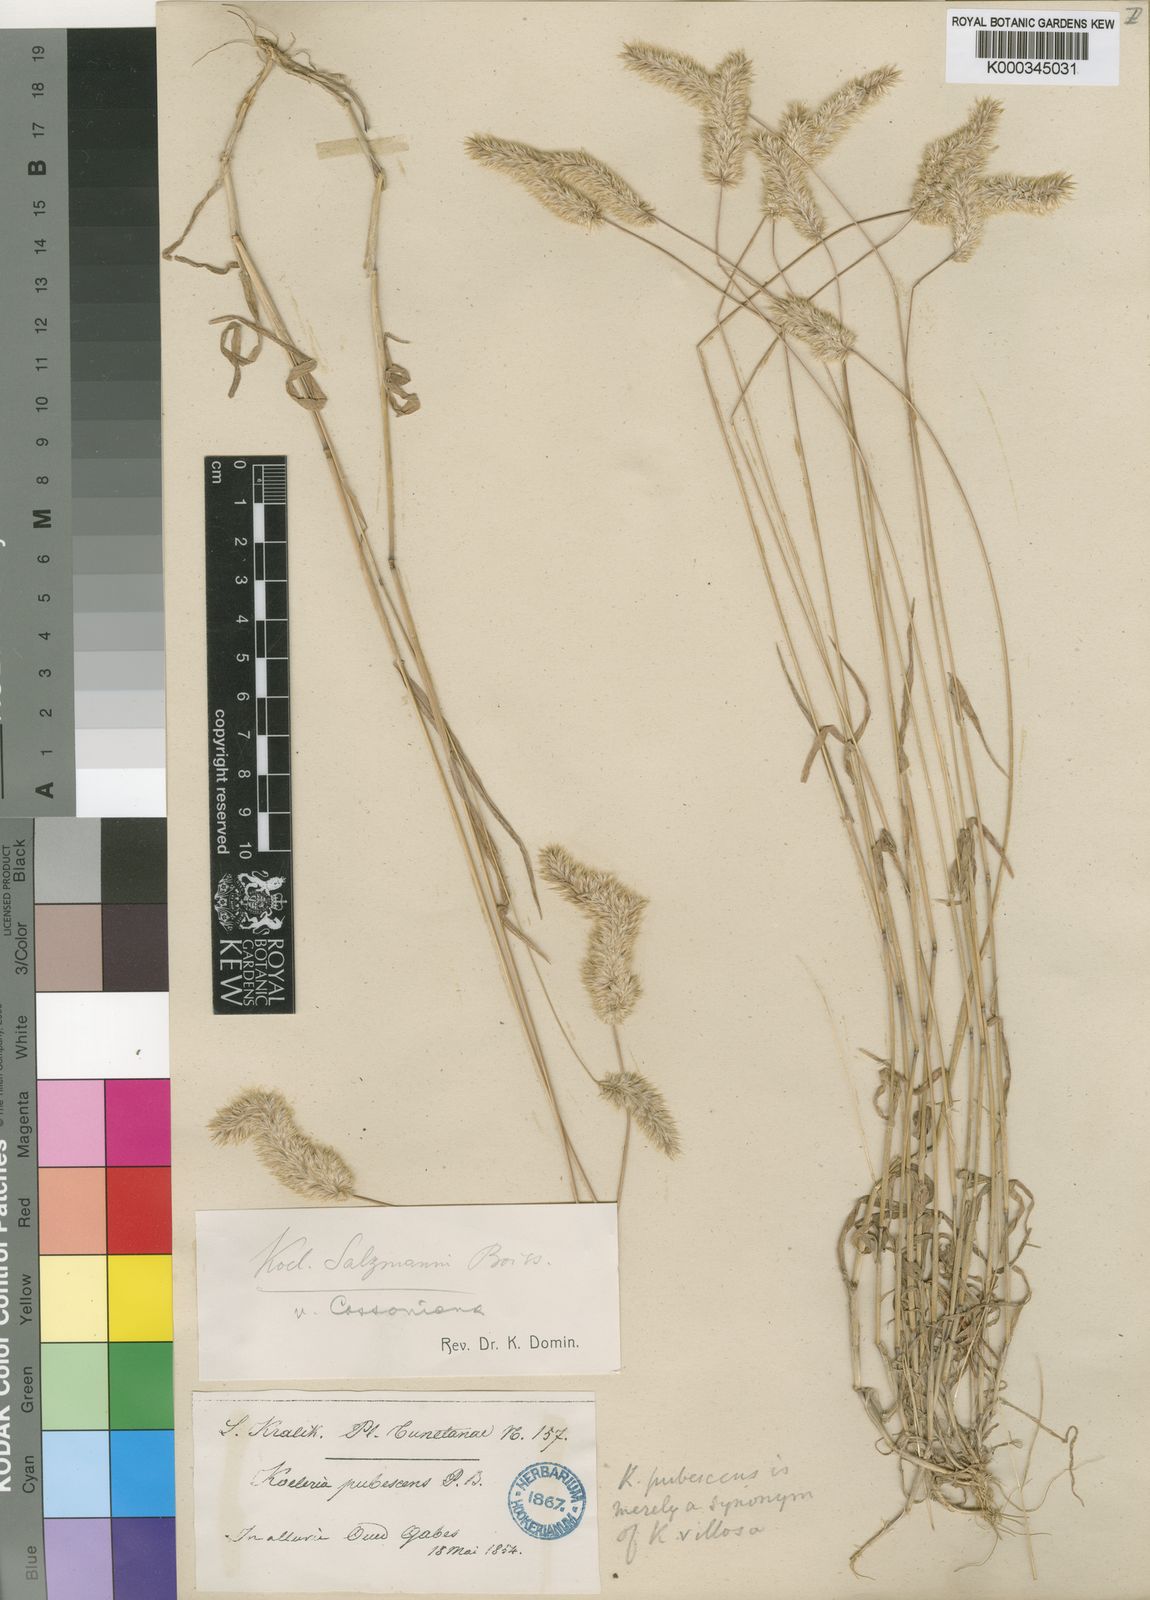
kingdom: Plantae
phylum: Tracheophyta
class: Liliopsida
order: Poales
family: Poaceae
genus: Rostraria
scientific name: Rostraria salzmannii
